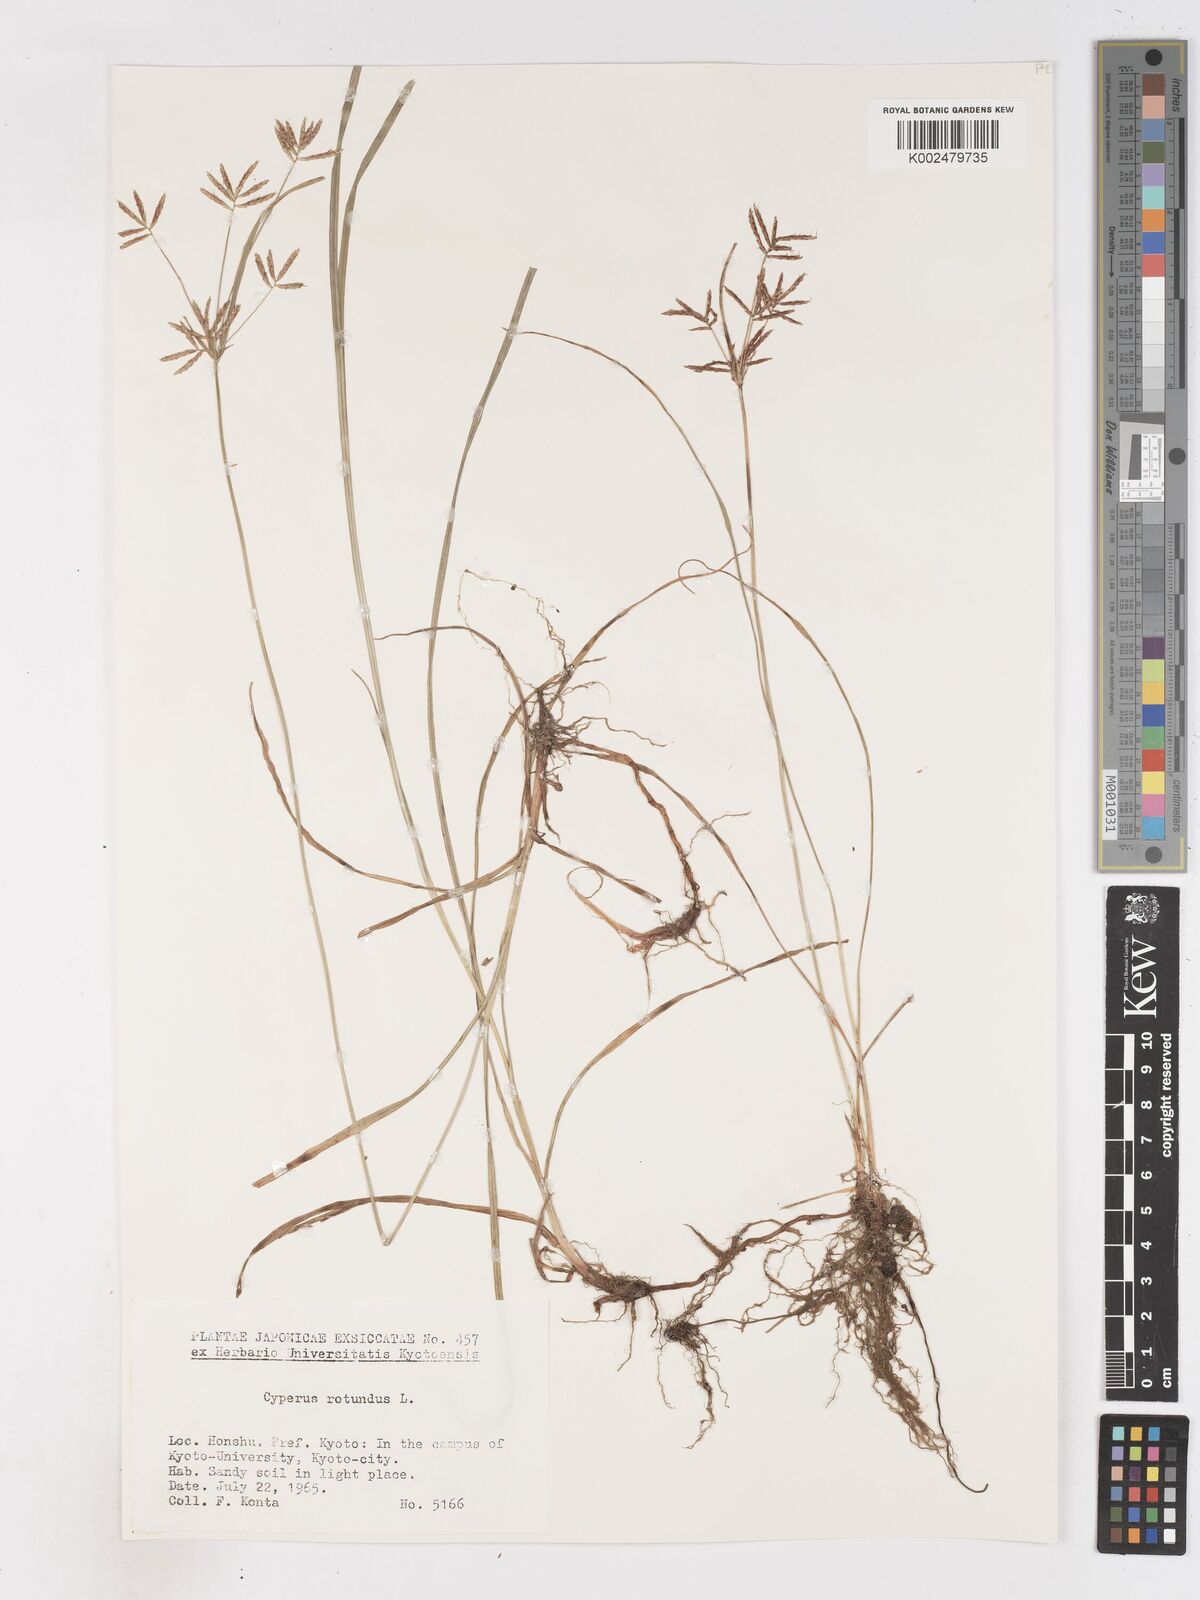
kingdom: Plantae
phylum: Tracheophyta
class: Liliopsida
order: Poales
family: Cyperaceae
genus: Cyperus
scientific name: Cyperus rotundus
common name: Nutgrass
